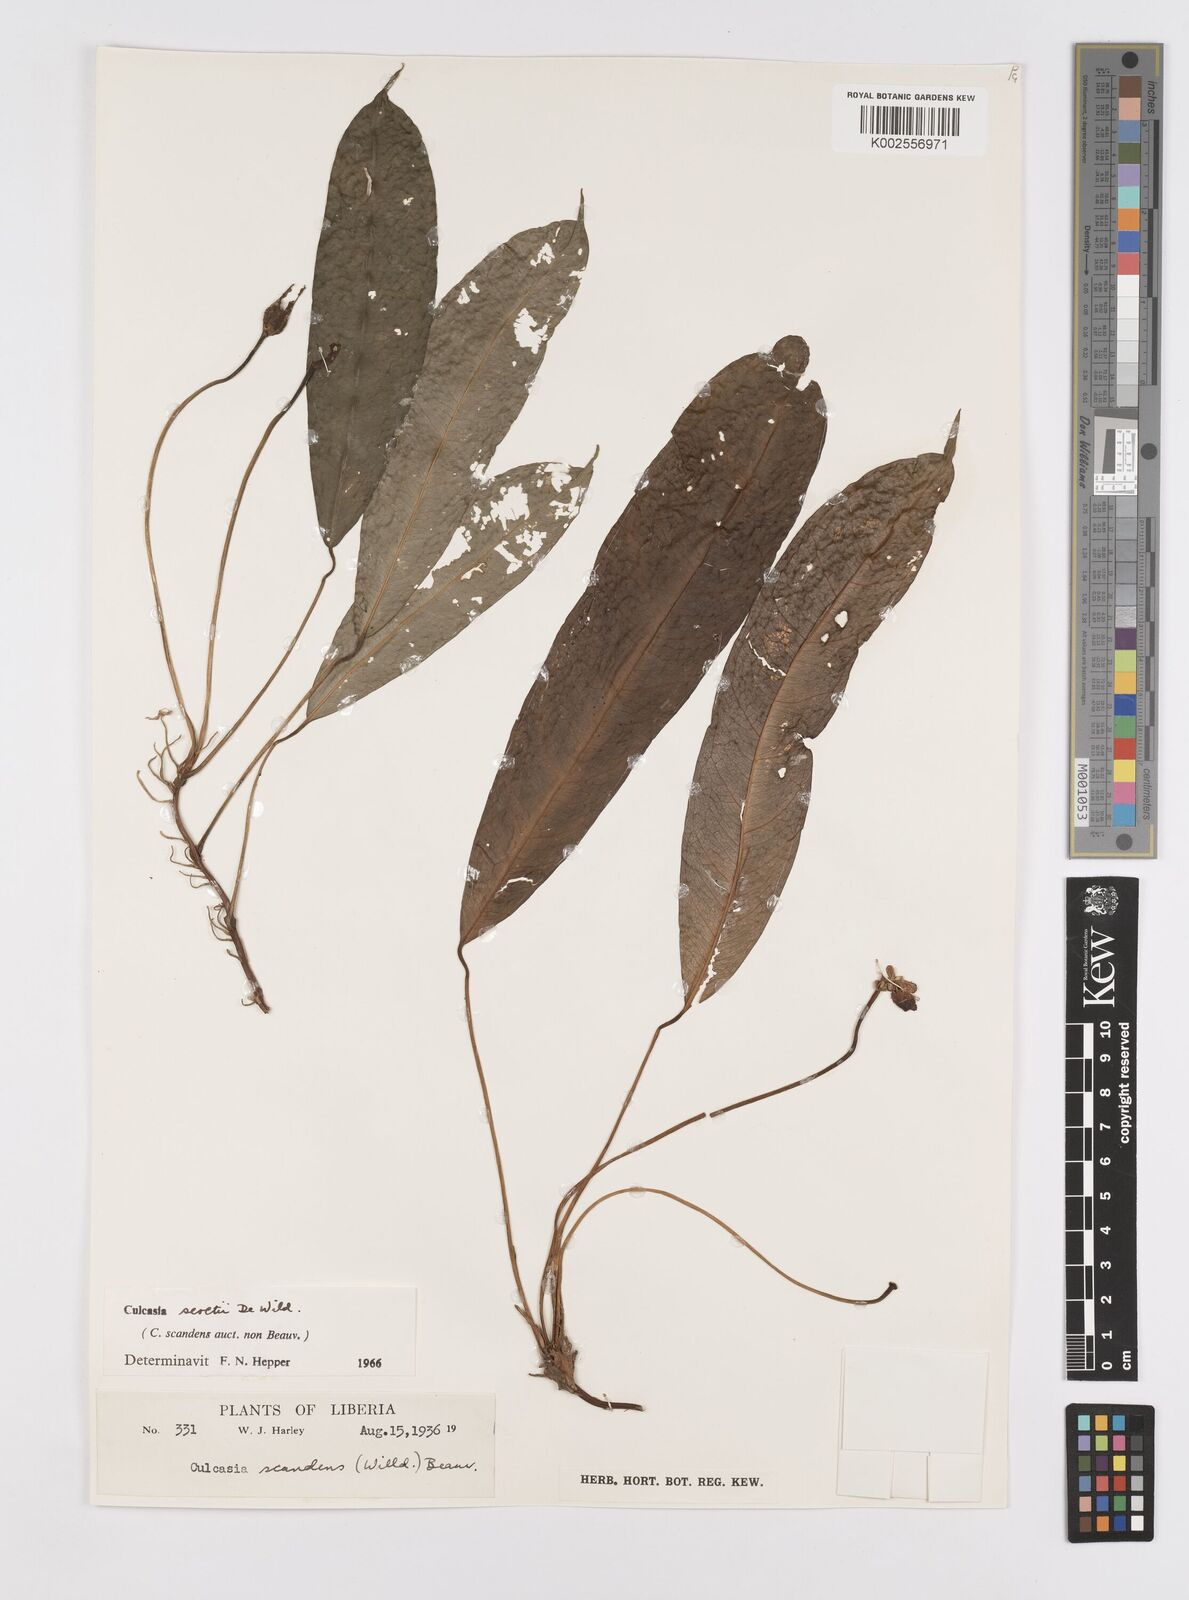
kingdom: Plantae
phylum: Tracheophyta
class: Liliopsida
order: Alismatales
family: Araceae
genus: Culcasia
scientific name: Culcasia seretii
